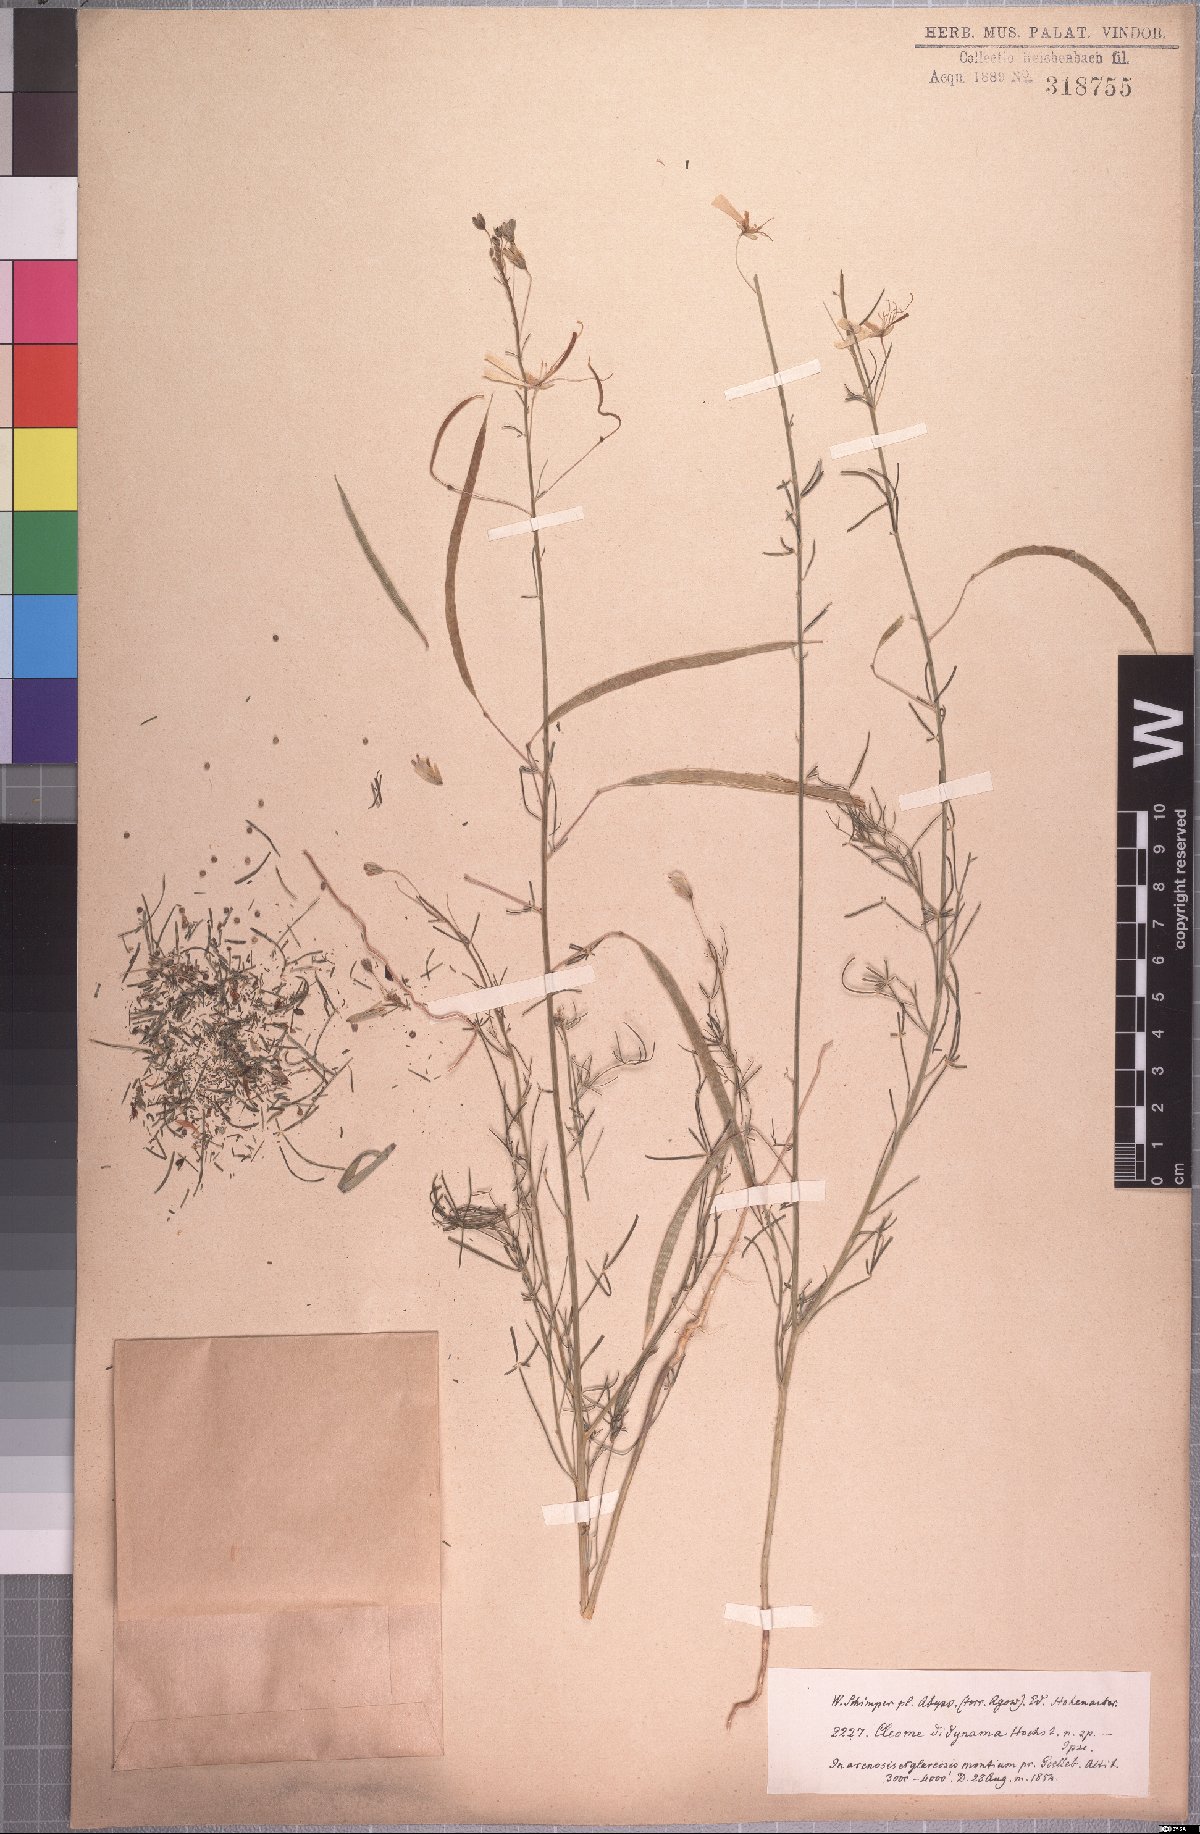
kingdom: Plantae
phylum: Tracheophyta
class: Magnoliopsida
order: Brassicales
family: Cleomaceae
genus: Coalisina
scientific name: Coalisina angustifolia
